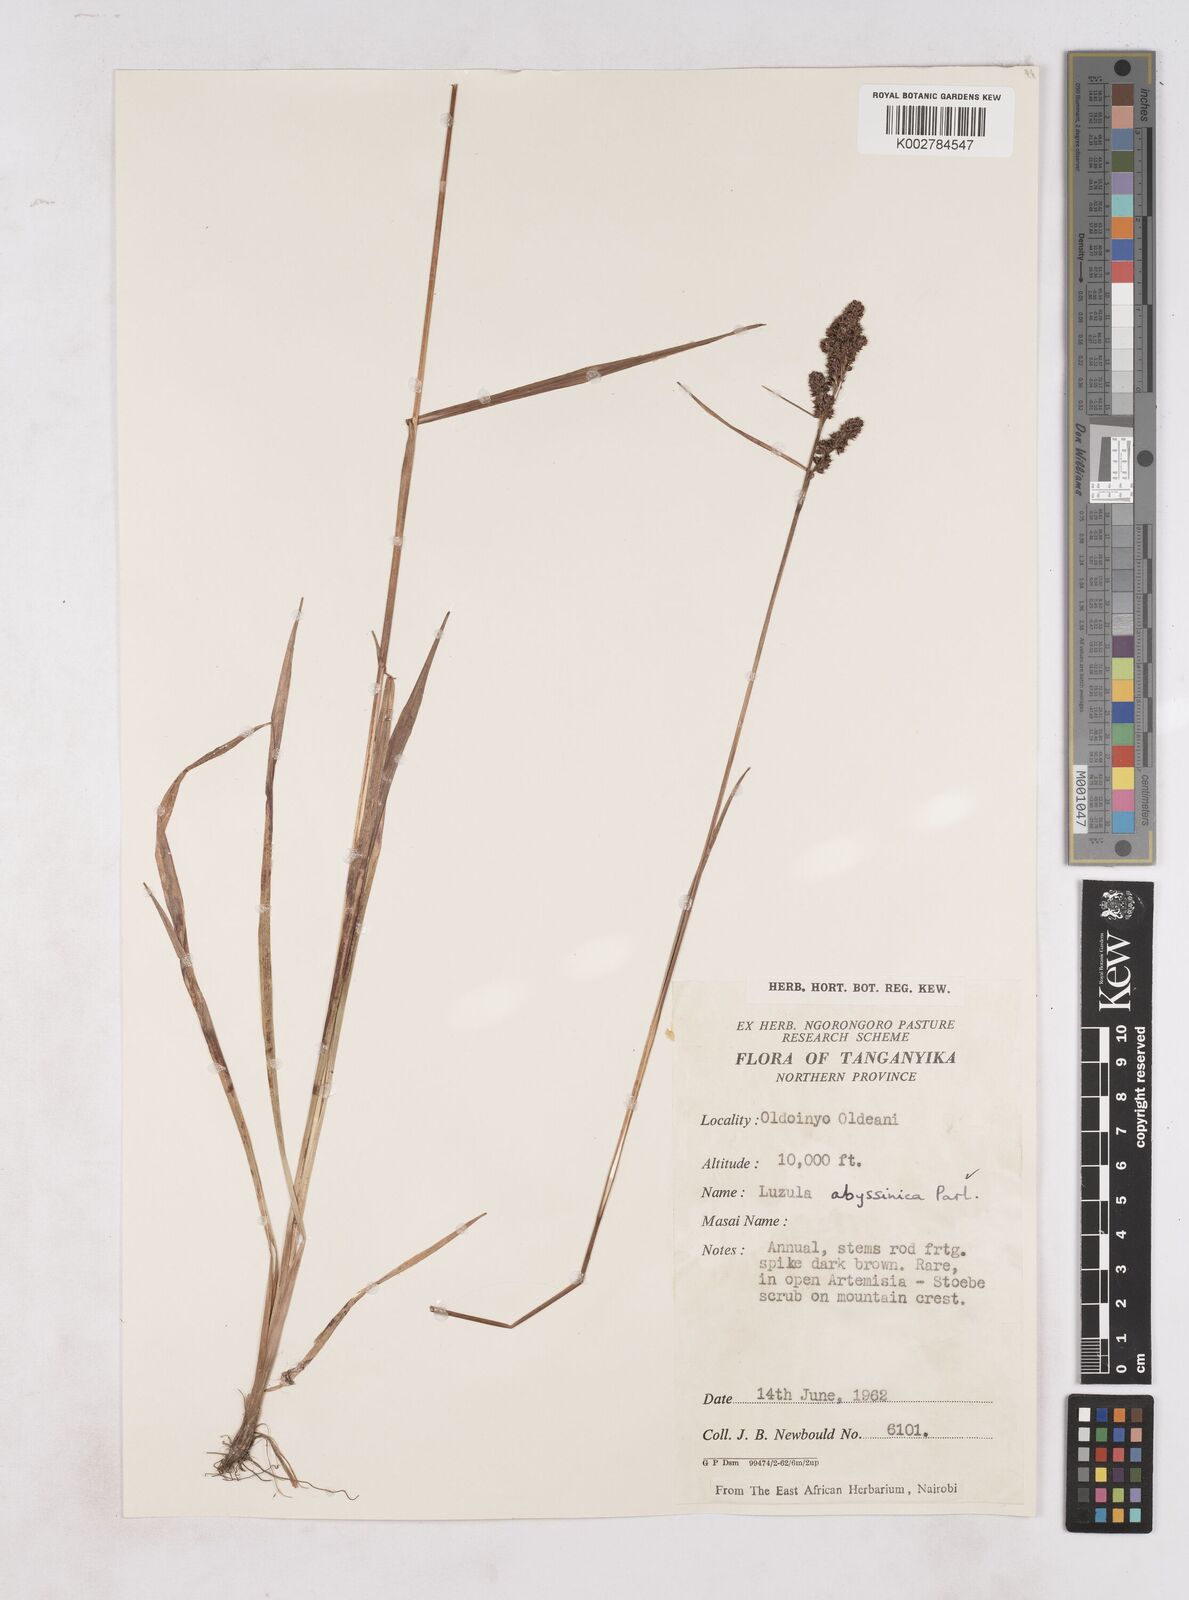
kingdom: Plantae
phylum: Tracheophyta
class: Liliopsida
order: Poales
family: Juncaceae
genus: Luzula
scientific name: Luzula abyssinica
